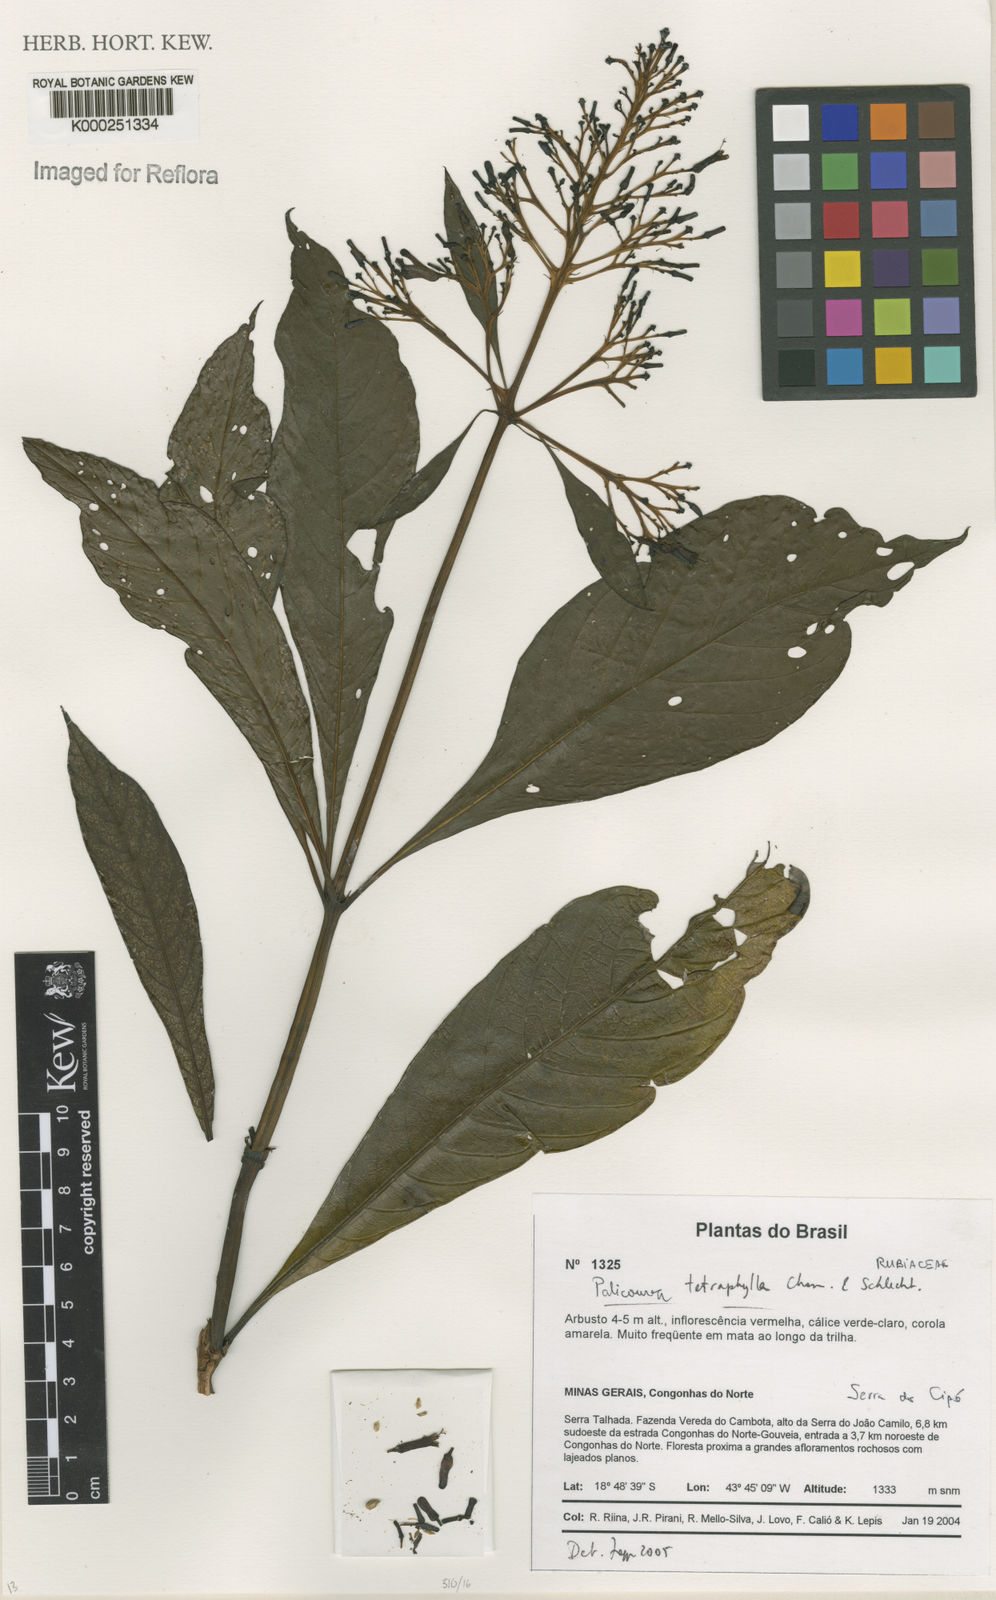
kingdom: Plantae
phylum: Tracheophyta
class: Magnoliopsida
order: Gentianales
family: Rubiaceae
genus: Palicourea
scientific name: Palicourea
